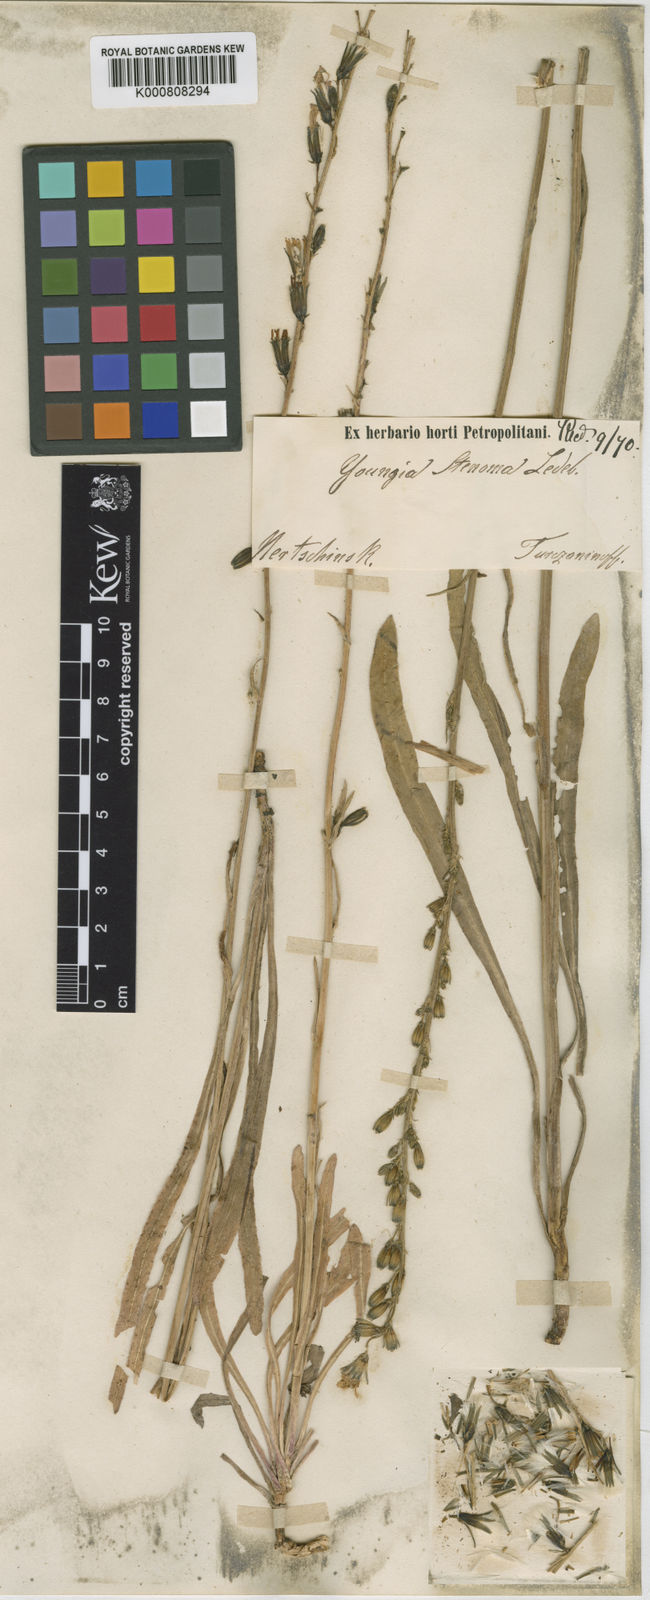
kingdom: Plantae
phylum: Tracheophyta
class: Magnoliopsida
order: Asterales
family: Asteraceae
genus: Sonchella
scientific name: Sonchella stenoma
